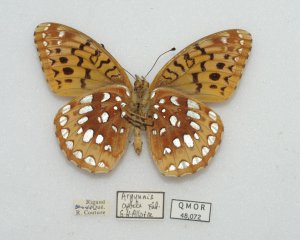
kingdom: Animalia
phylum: Arthropoda
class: Insecta
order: Lepidoptera
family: Nymphalidae
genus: Speyeria
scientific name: Speyeria cybele
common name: Great Spangled Fritillary
